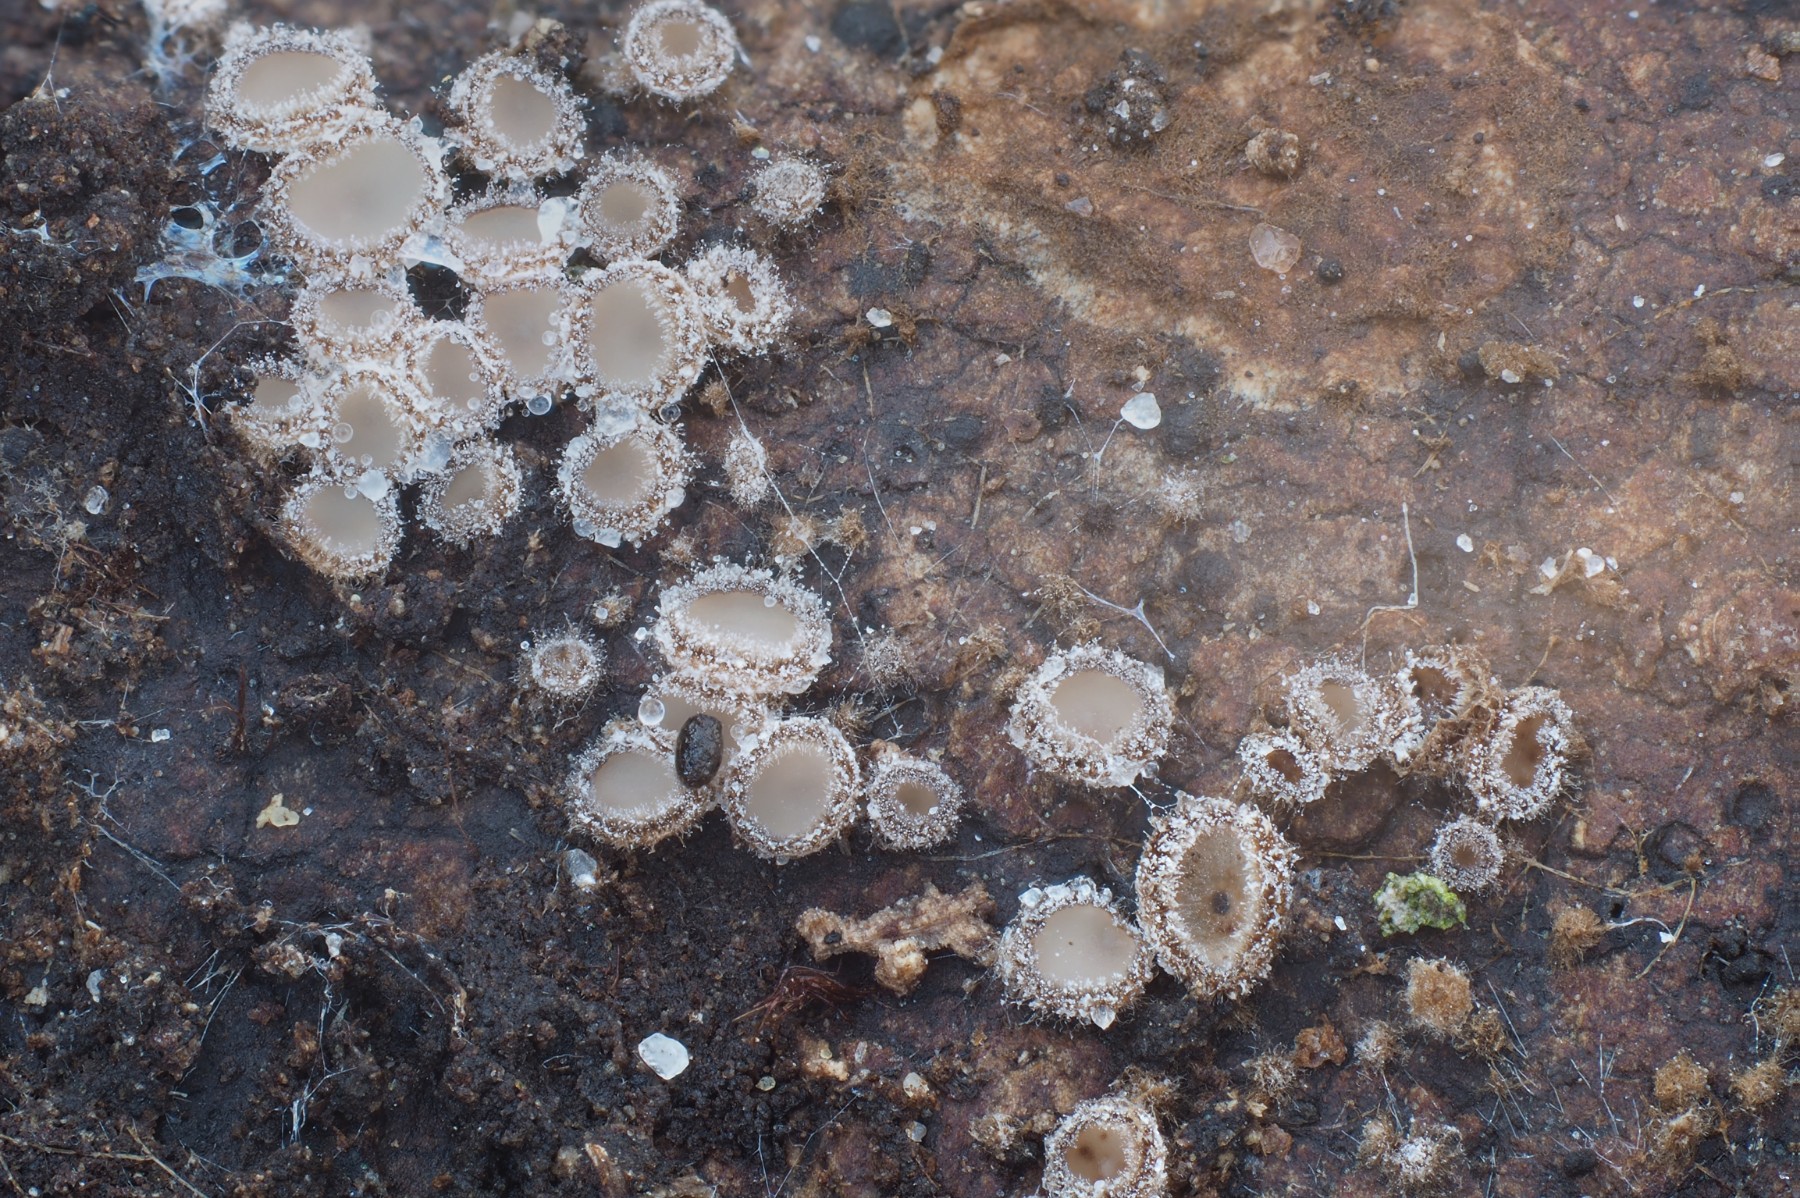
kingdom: Fungi
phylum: Ascomycota
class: Leotiomycetes
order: Helotiales
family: Solenopeziaceae
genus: Lasiobelonium
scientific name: Lasiobelonium variegatum
